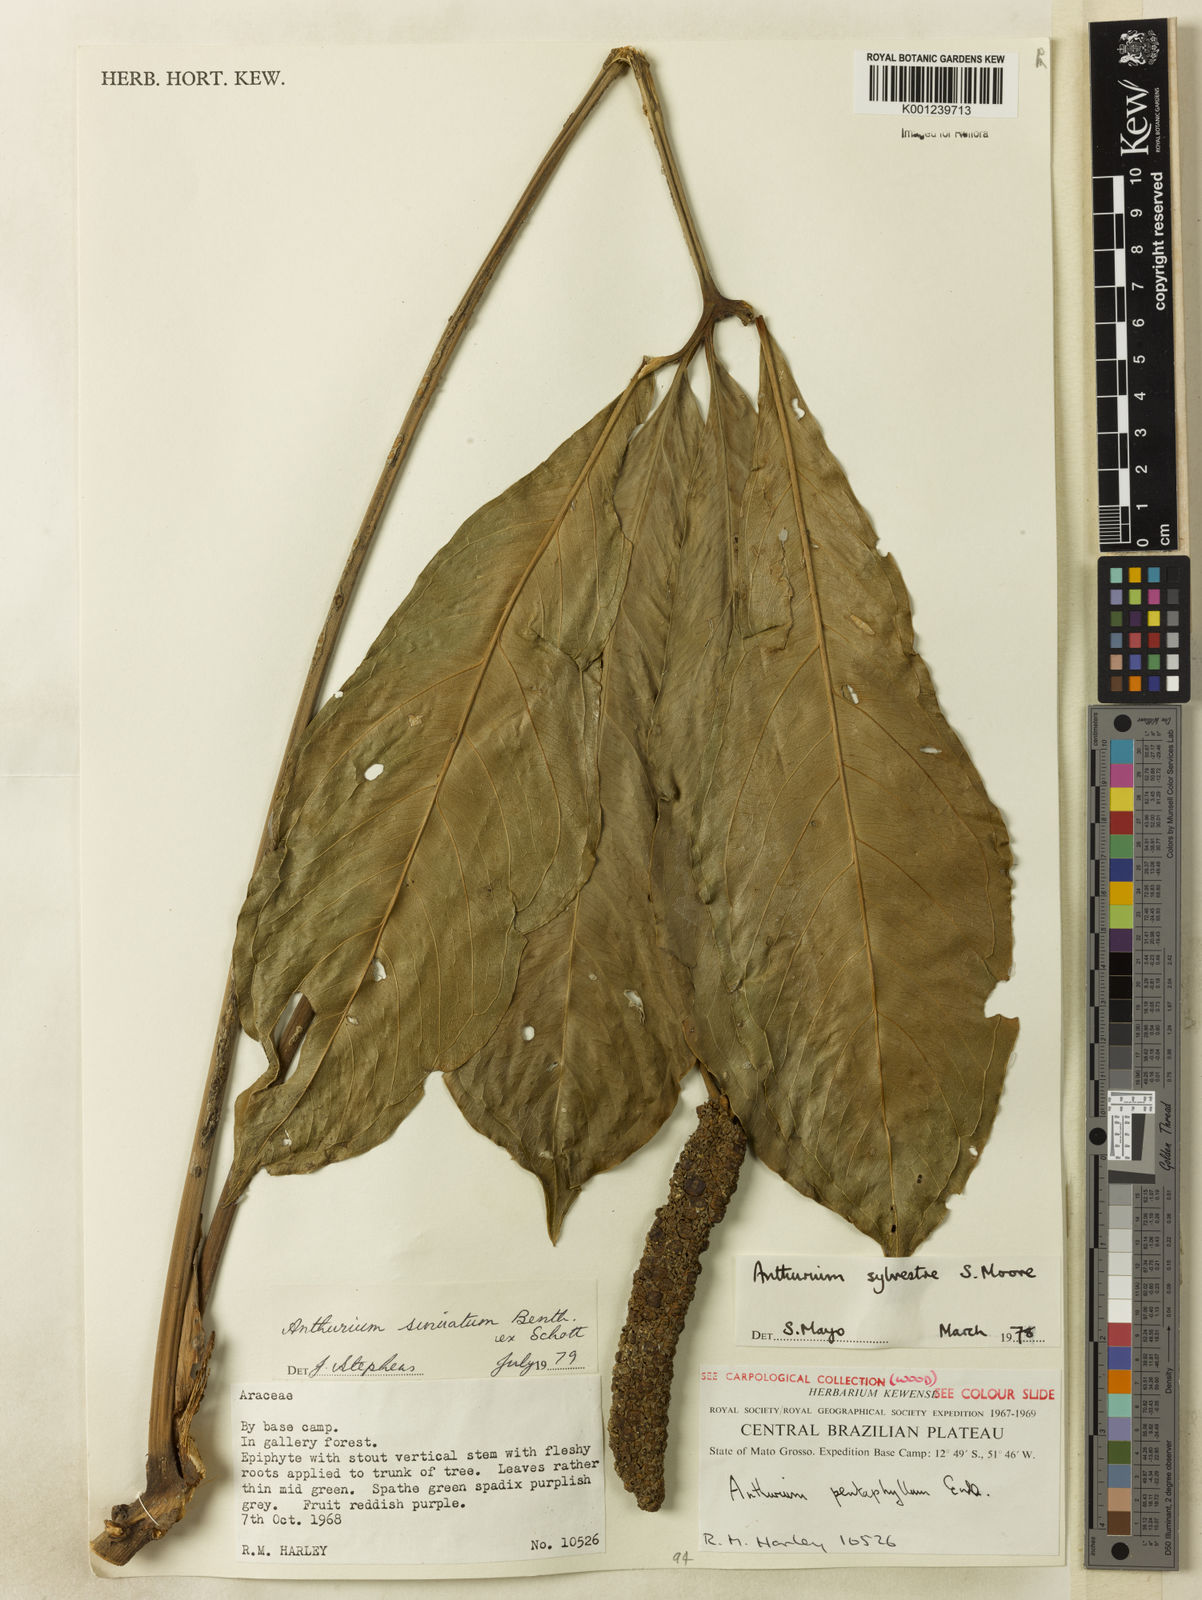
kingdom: Plantae
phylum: Tracheophyta
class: Liliopsida
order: Alismatales
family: Araceae
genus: Anthurium
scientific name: Anthurium sinuatum
